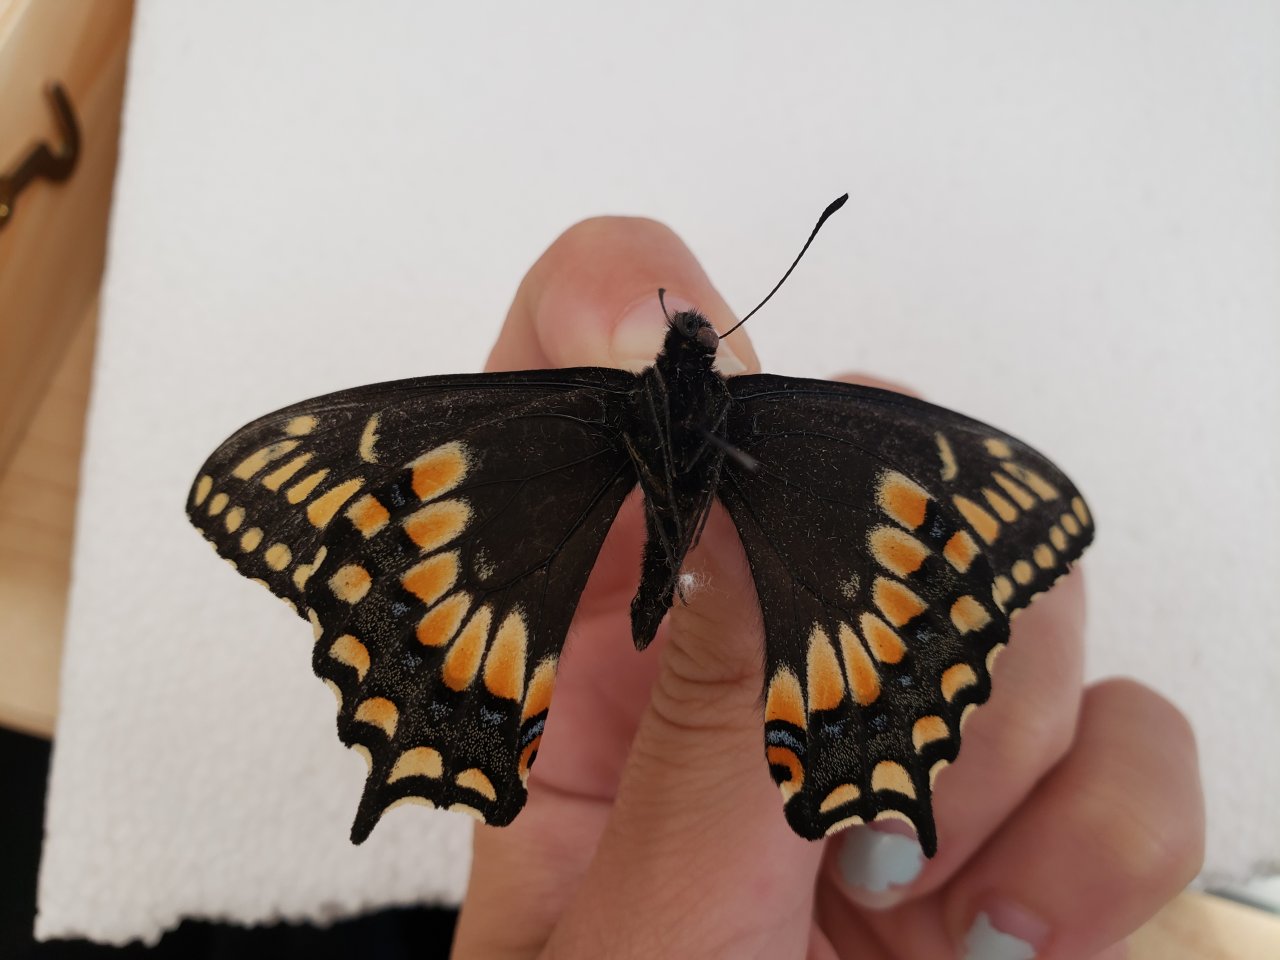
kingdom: Animalia
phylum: Arthropoda
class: Insecta
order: Lepidoptera
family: Papilionidae
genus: Papilio
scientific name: Papilio brevicauda
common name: Short-tailed Swallowtail
